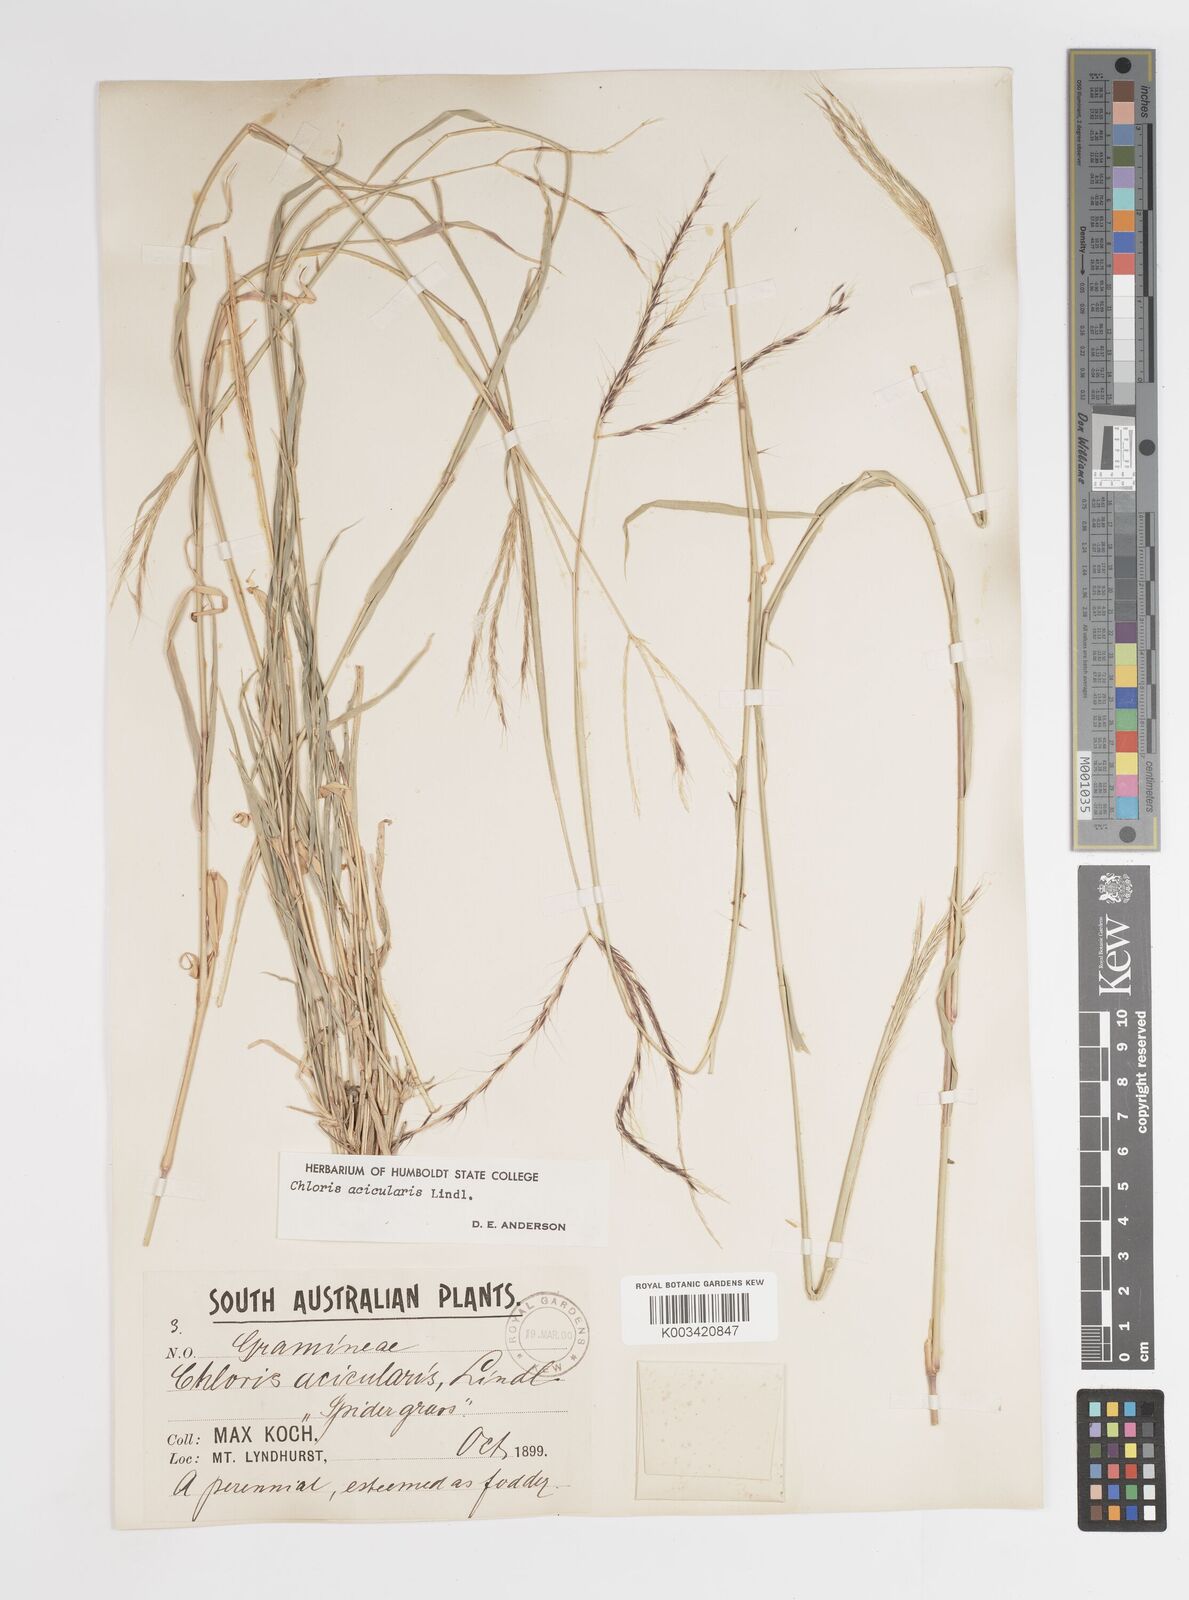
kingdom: Plantae
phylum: Tracheophyta
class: Liliopsida
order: Poales
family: Poaceae
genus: Enteropogon
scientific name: Enteropogon acicularis
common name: Curly windmill grass
